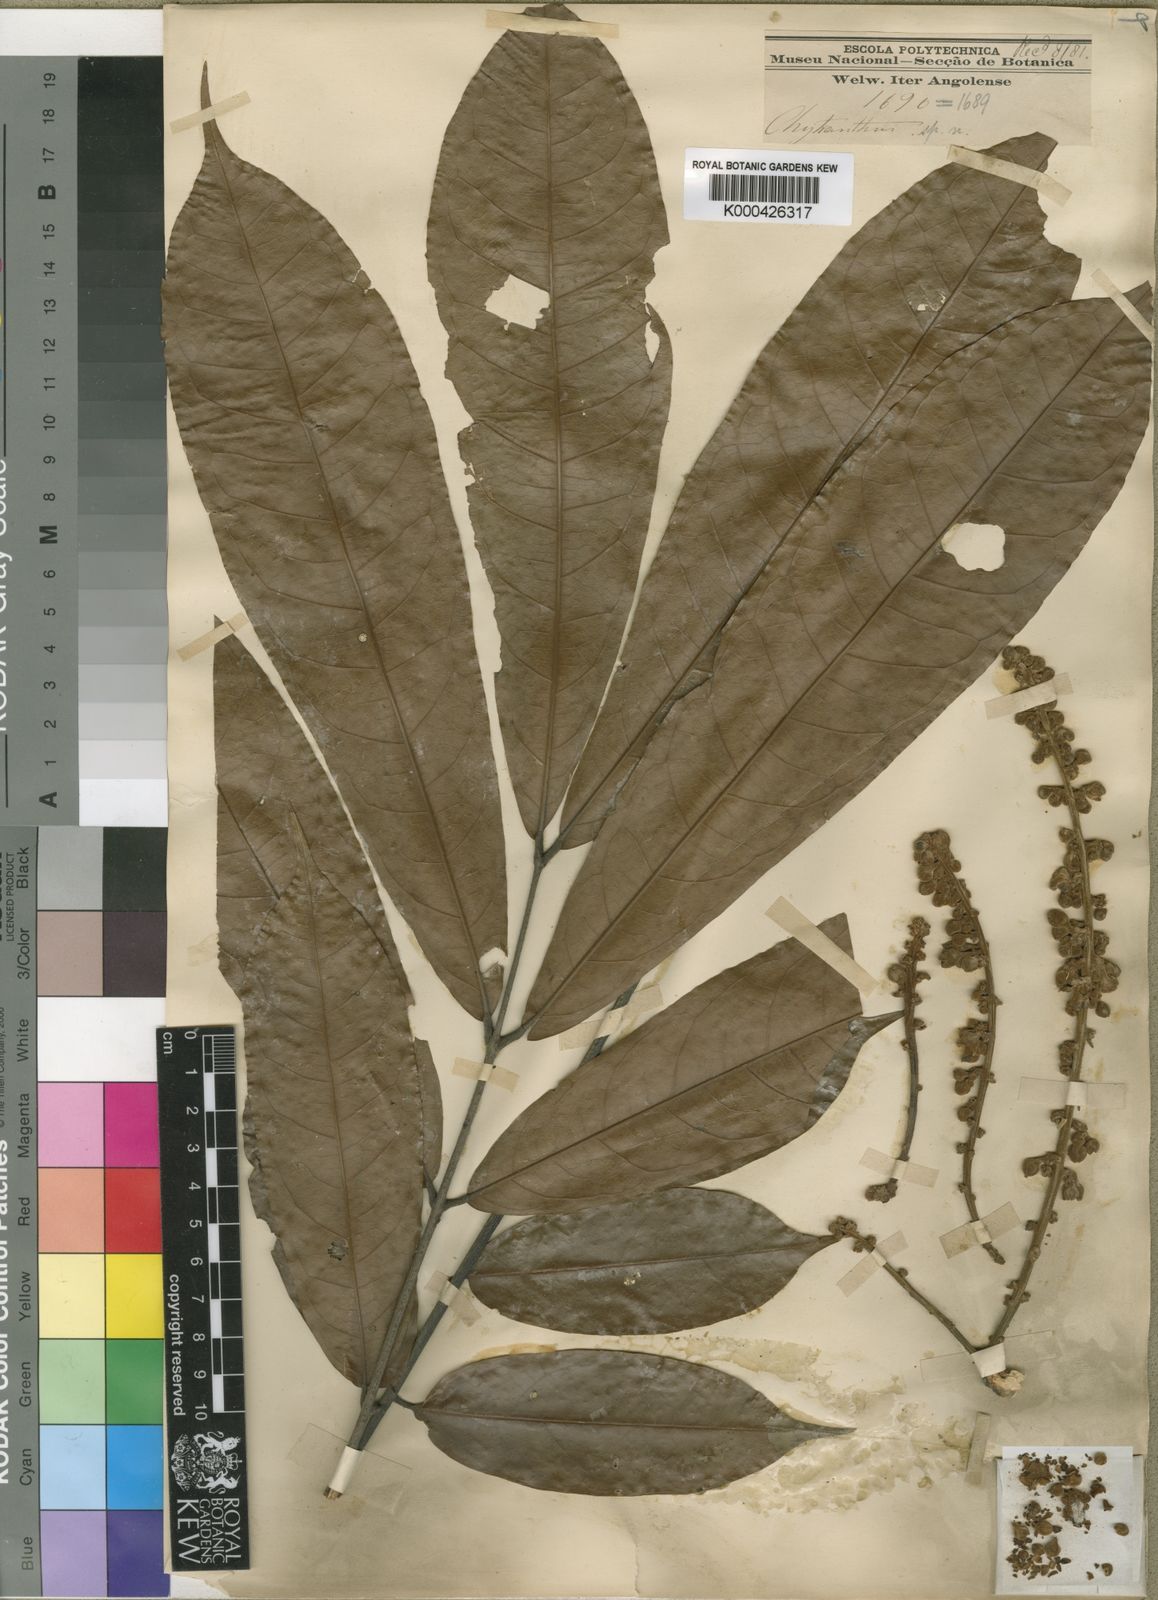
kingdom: Plantae
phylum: Tracheophyta
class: Magnoliopsida
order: Sapindales
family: Sapindaceae
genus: Chytranthus
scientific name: Chytranthus carneus
